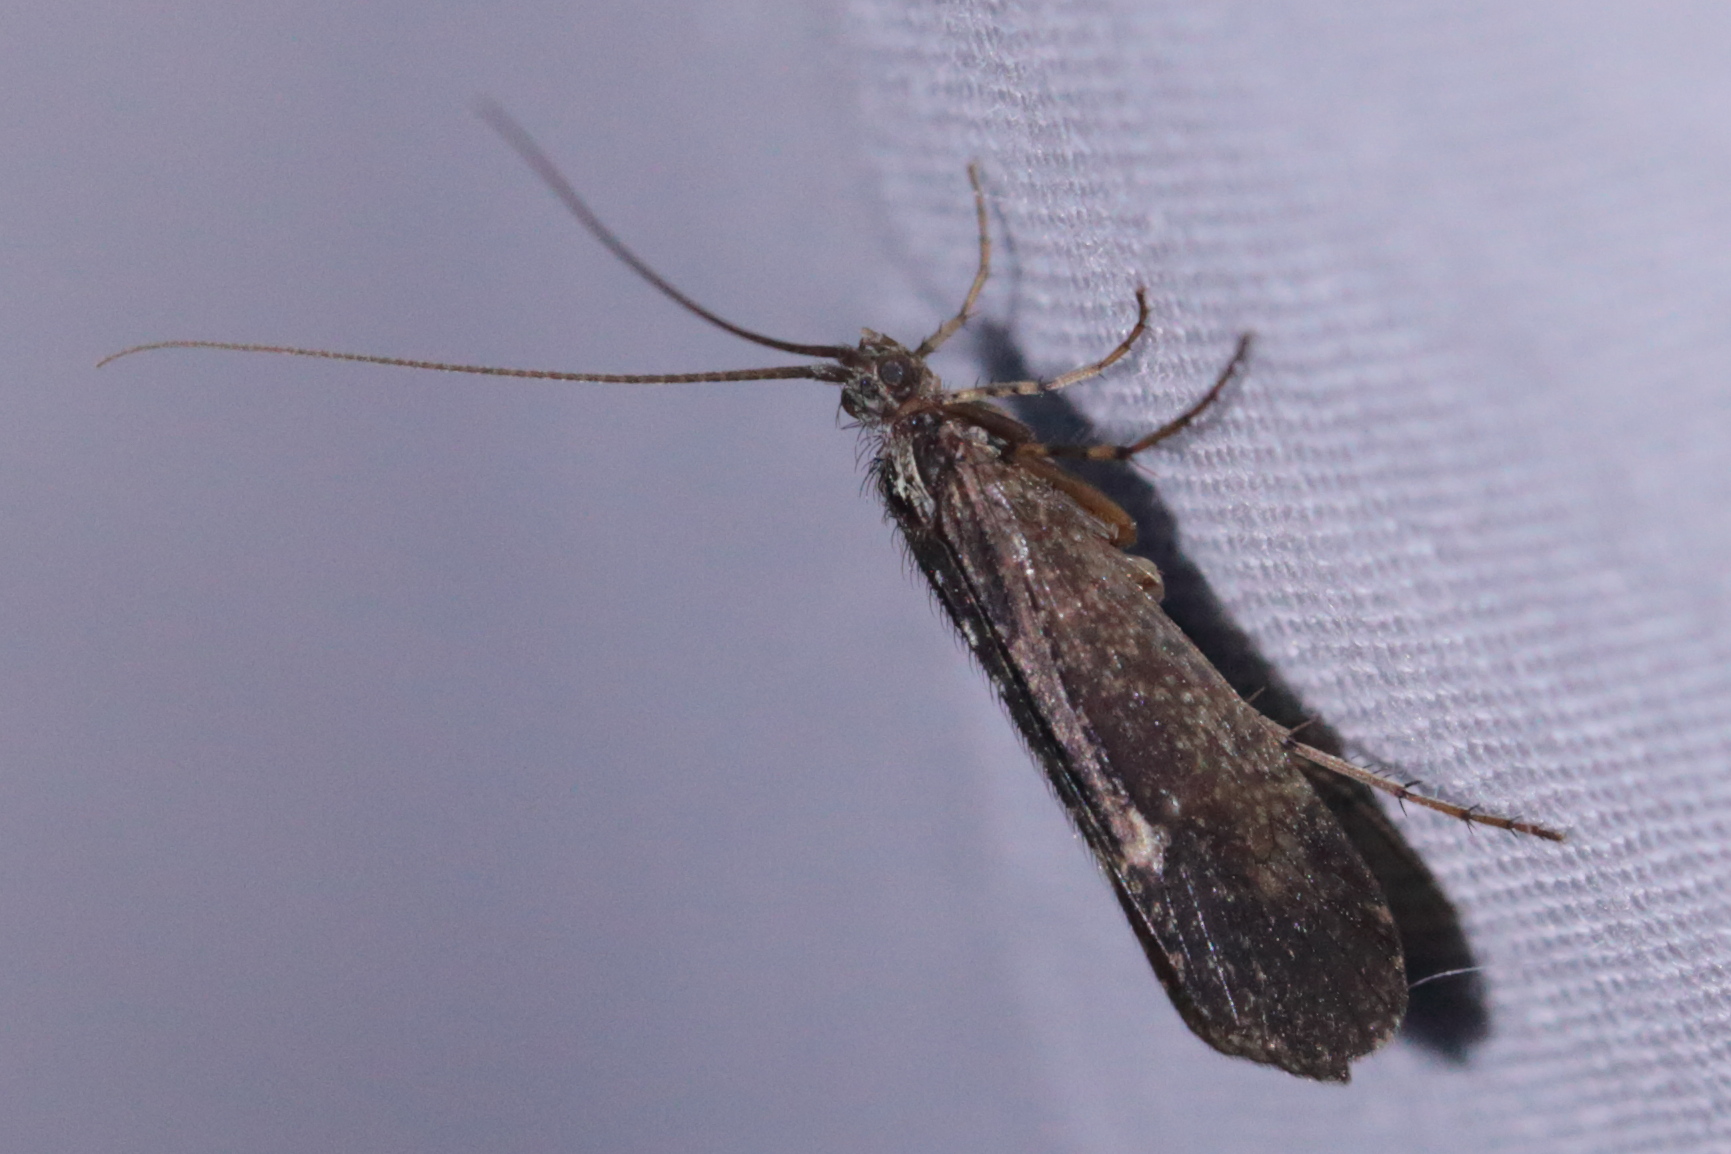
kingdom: Animalia
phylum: Arthropoda
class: Insecta
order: Trichoptera
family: Limnephilidae
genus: Limnephilus
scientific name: Limnephilus sparsus
